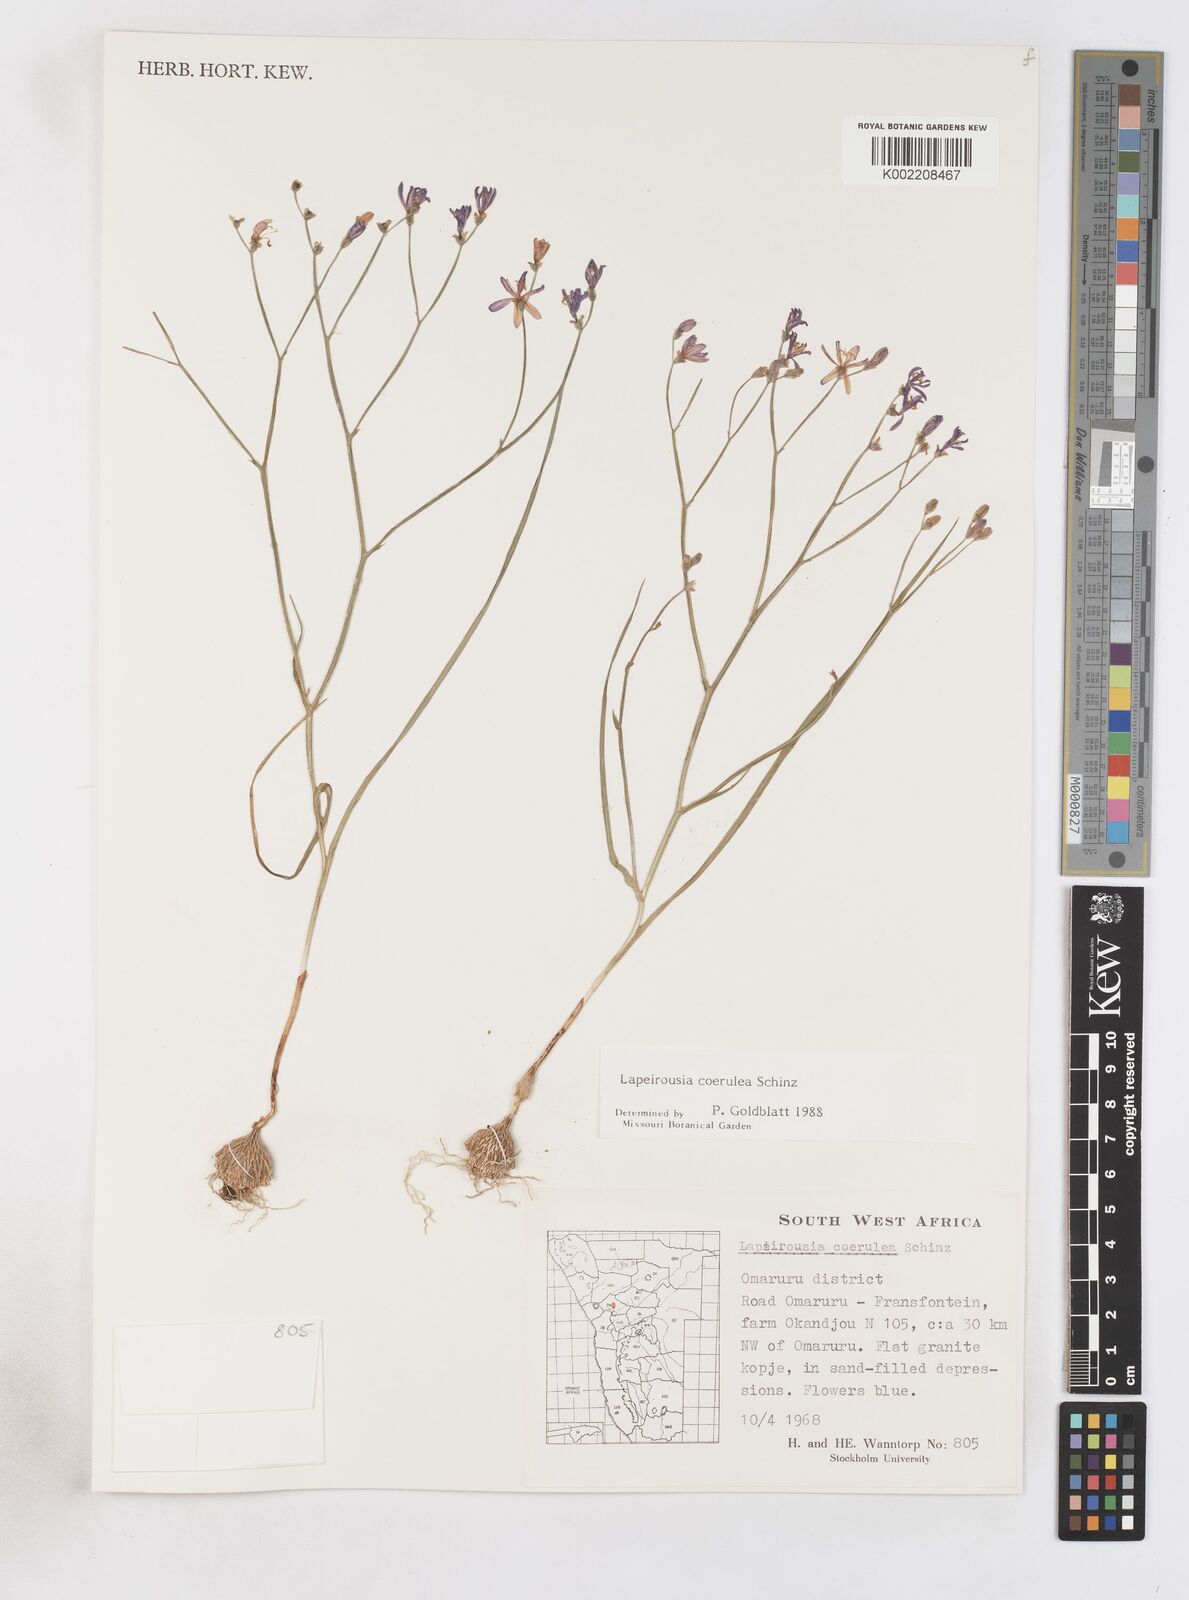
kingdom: Plantae
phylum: Tracheophyta
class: Liliopsida
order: Asparagales
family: Iridaceae
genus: Afrosolen
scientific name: Afrosolen coeruleus
